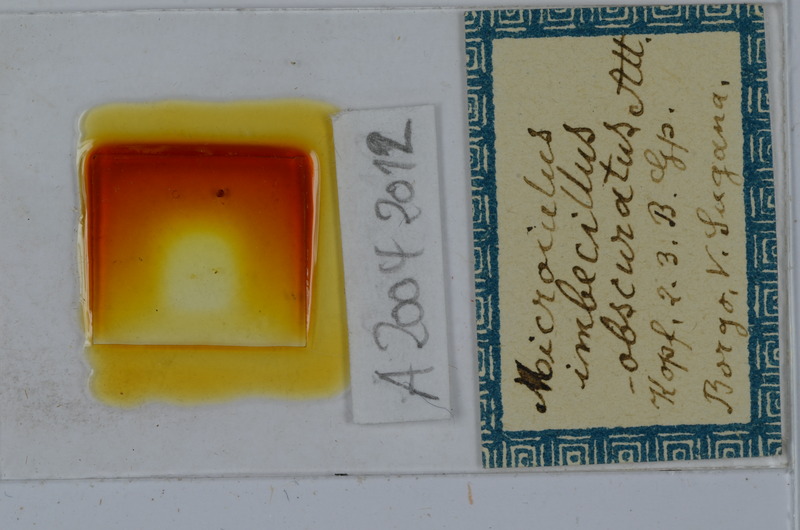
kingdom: Animalia
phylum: Arthropoda
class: Diplopoda
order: Julida
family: Julidae
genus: Xestoiulus
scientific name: Xestoiulus imbecillus
